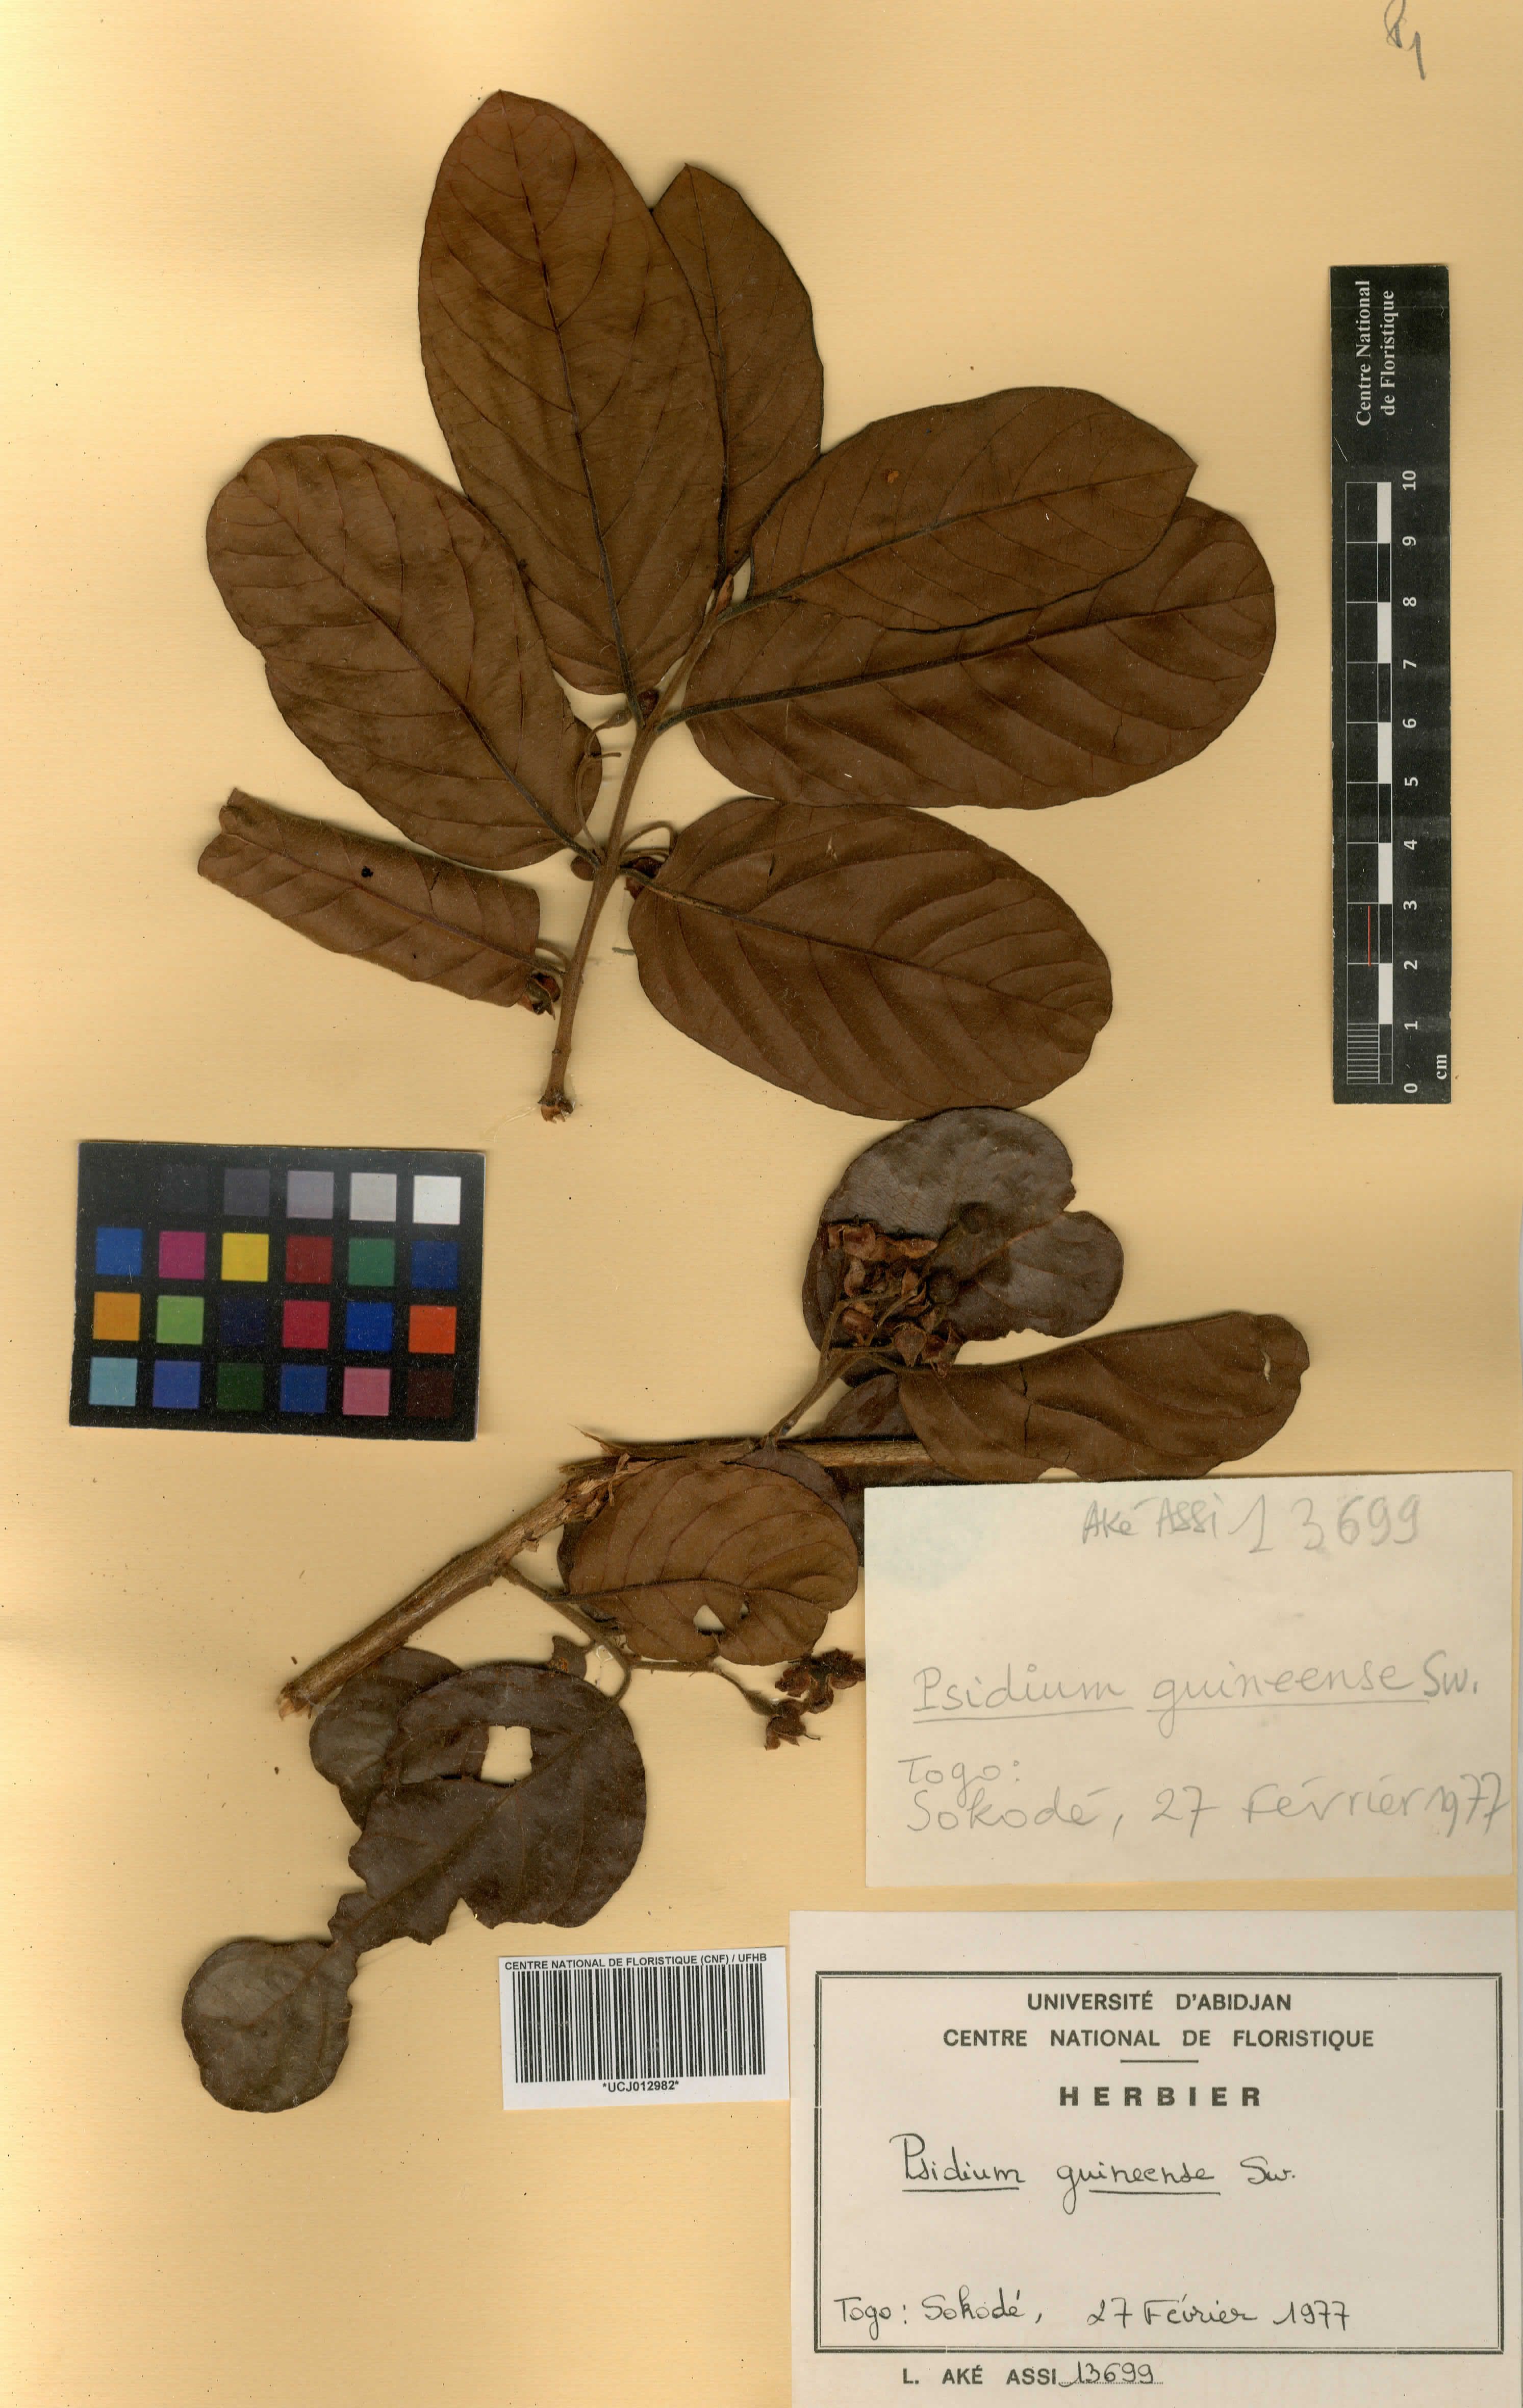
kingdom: Plantae
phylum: Tracheophyta
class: Magnoliopsida
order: Myrtales
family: Myrtaceae
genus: Psidium
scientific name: Psidium guineense
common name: Brazilian guava
